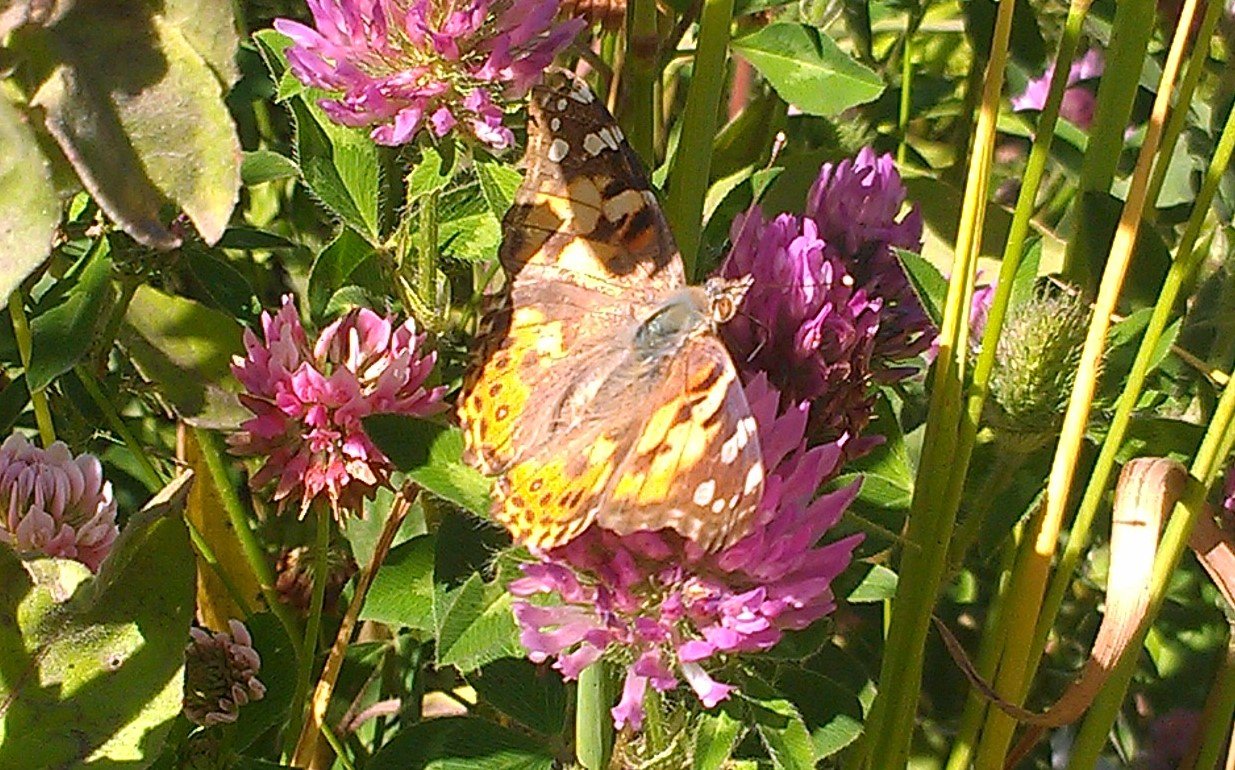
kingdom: Animalia
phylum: Arthropoda
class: Insecta
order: Lepidoptera
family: Nymphalidae
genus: Vanessa
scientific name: Vanessa cardui
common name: Painted Lady
